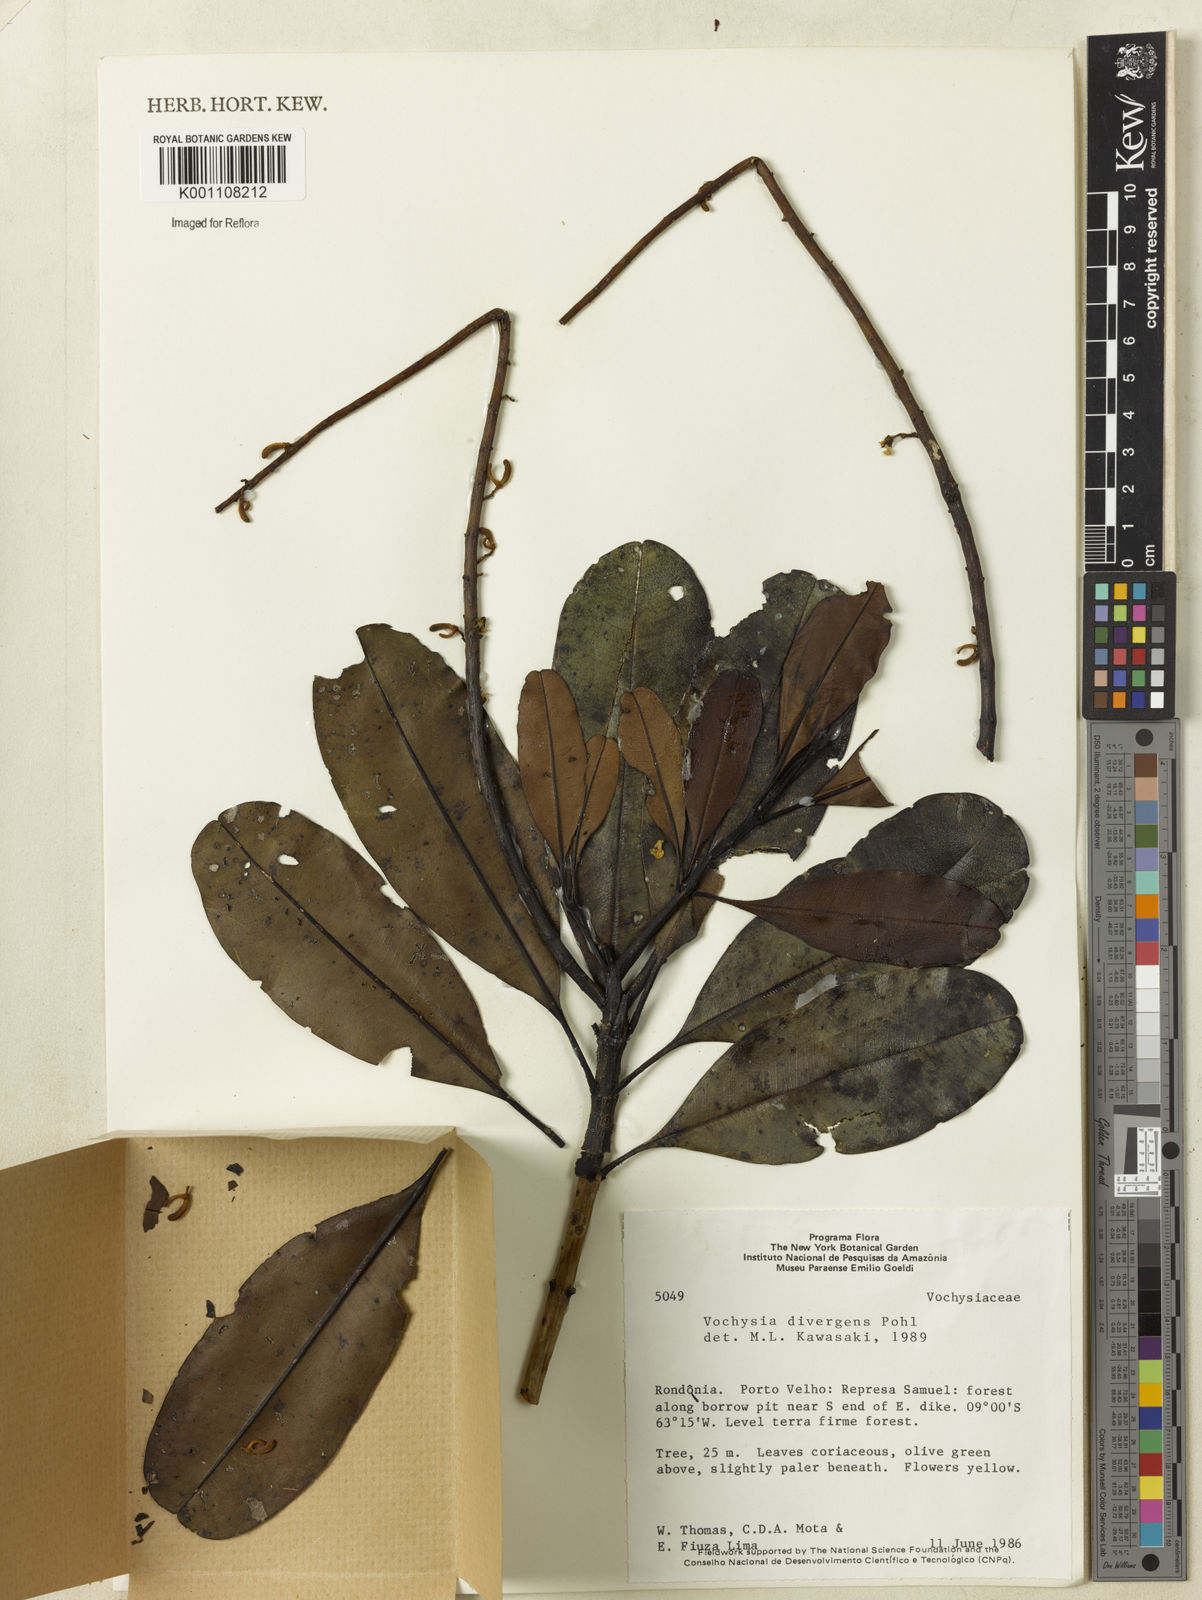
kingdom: Plantae
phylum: Tracheophyta
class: Magnoliopsida
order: Myrtales
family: Vochysiaceae
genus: Vochysia
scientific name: Vochysia divergens
